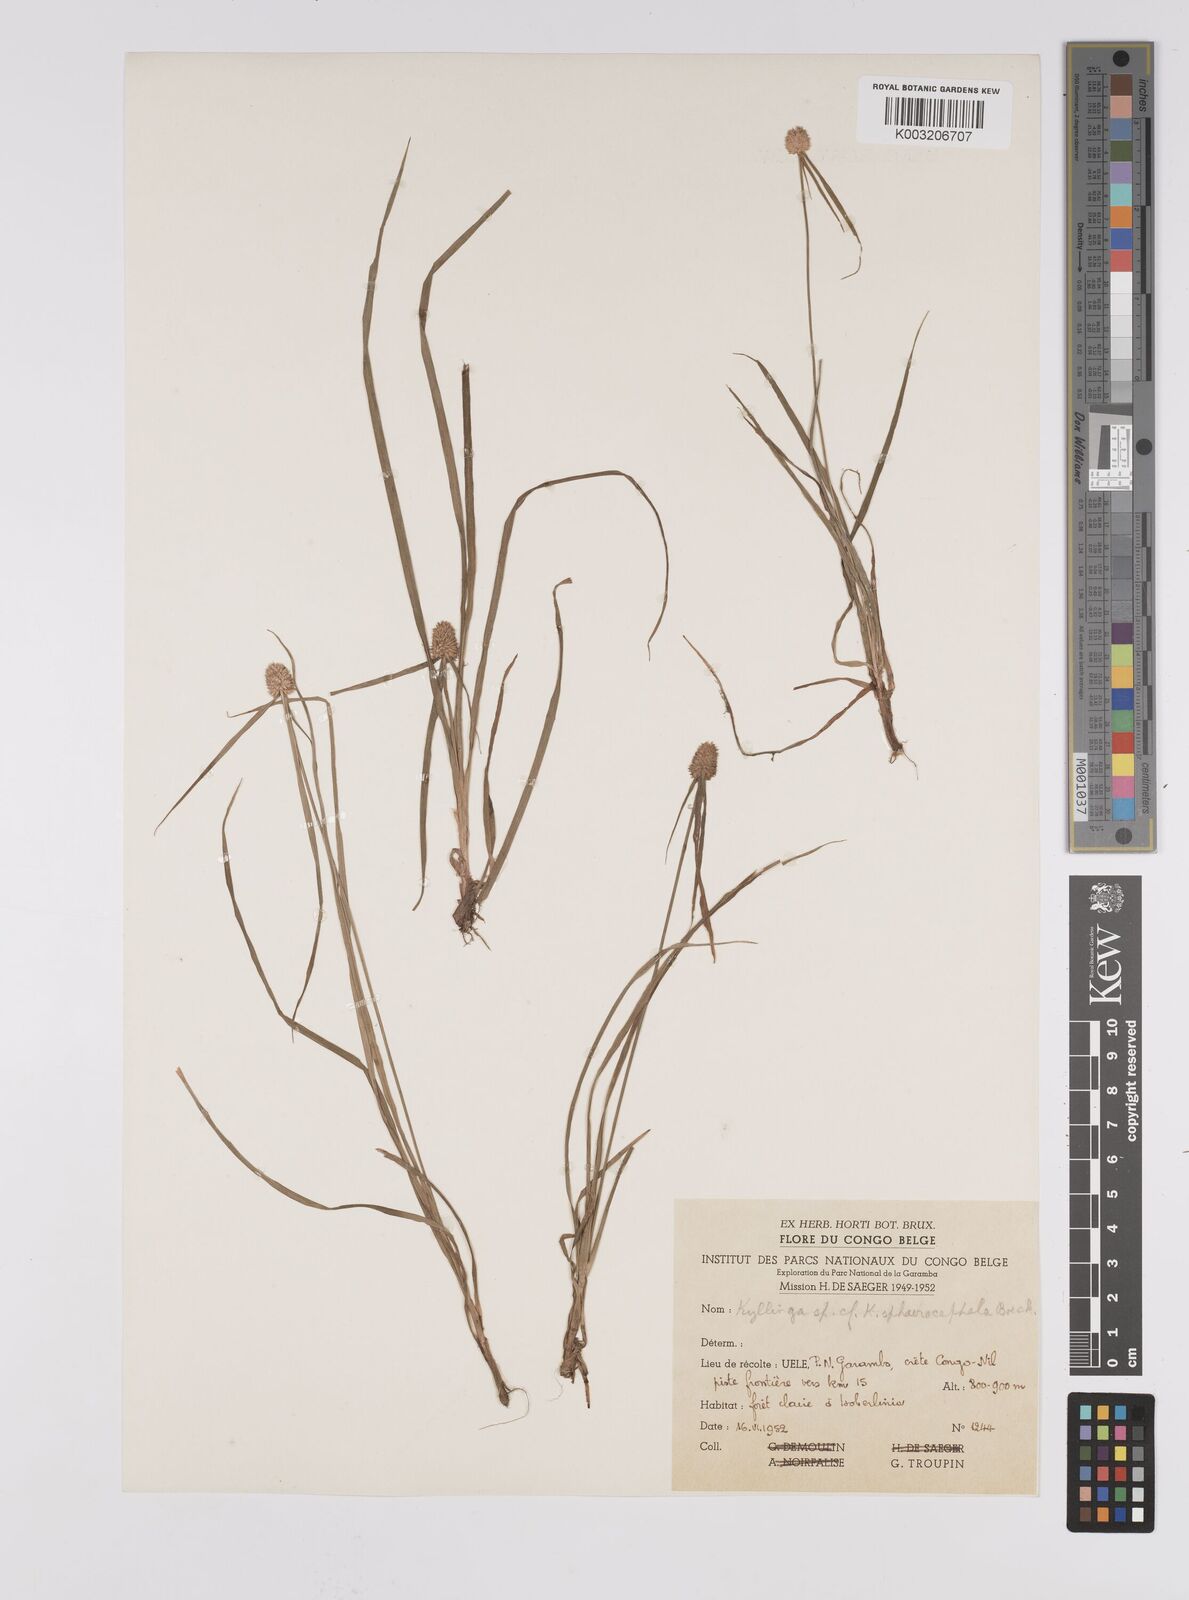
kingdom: Plantae
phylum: Tracheophyta
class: Liliopsida
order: Poales
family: Cyperaceae
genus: Cyperus
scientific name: Cyperus sphaerolepis
